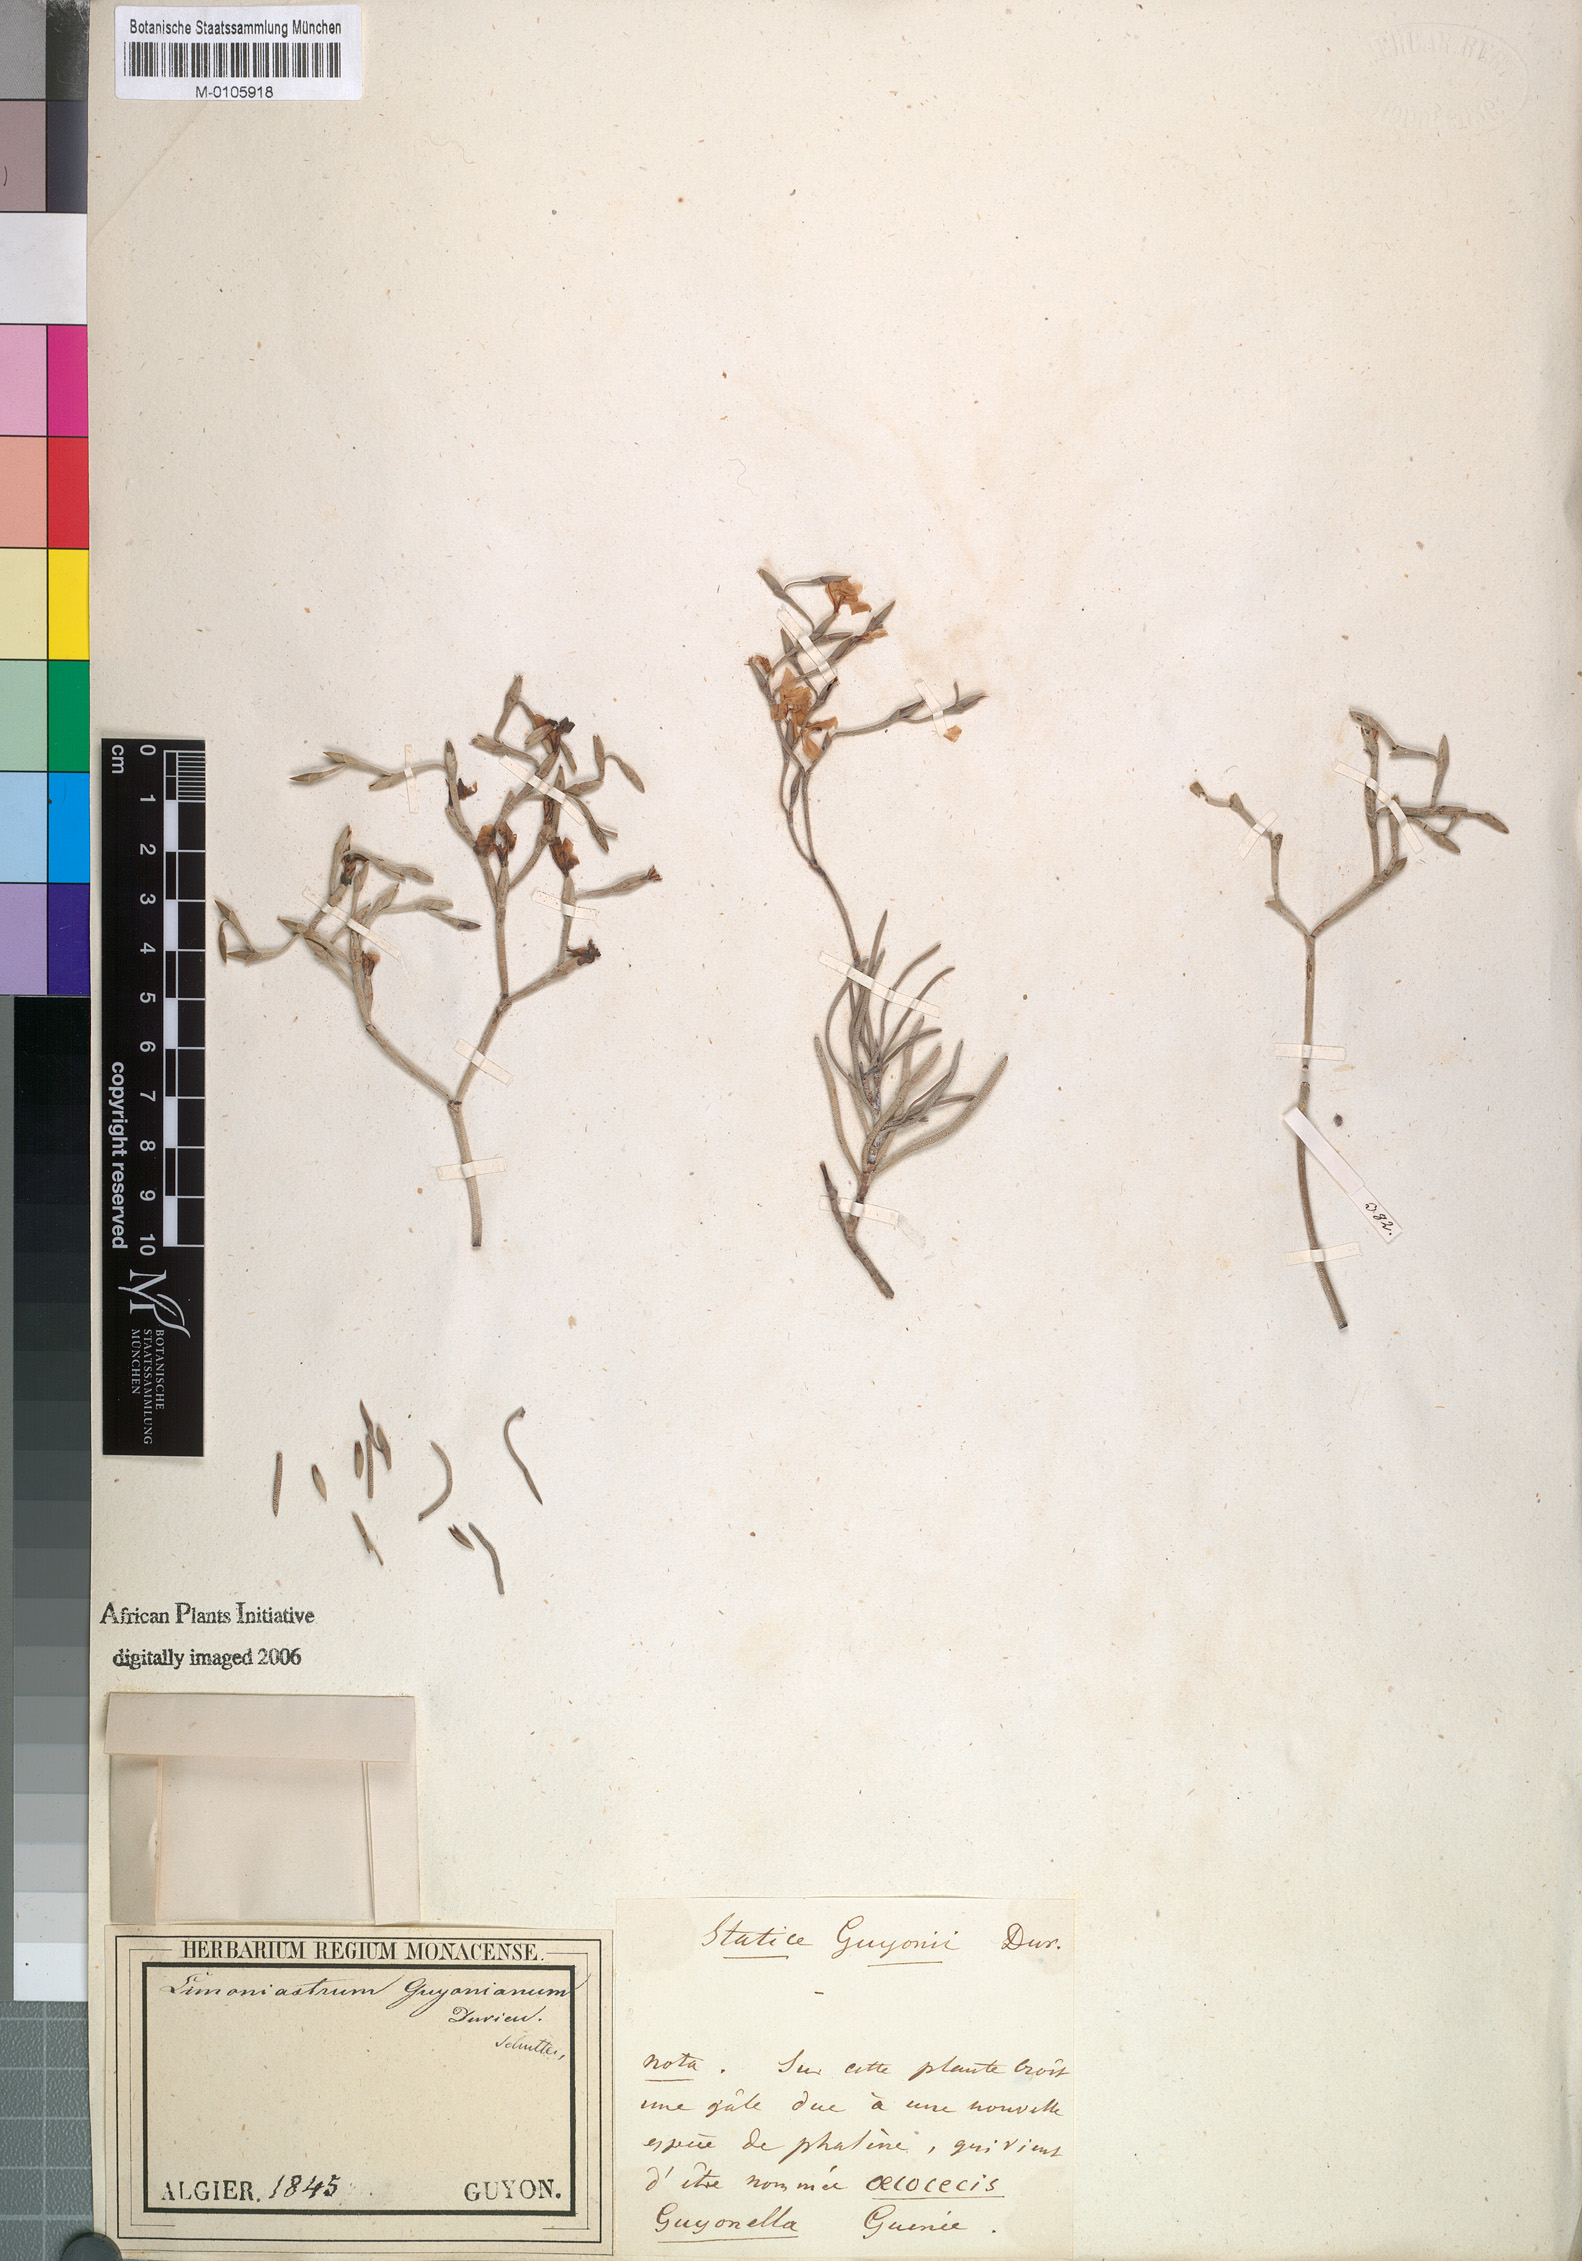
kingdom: Plantae
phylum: Tracheophyta
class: Magnoliopsida
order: Caryophyllales
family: Plumbaginaceae
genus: Limoniastrum
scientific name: Limoniastrum guyonianum
